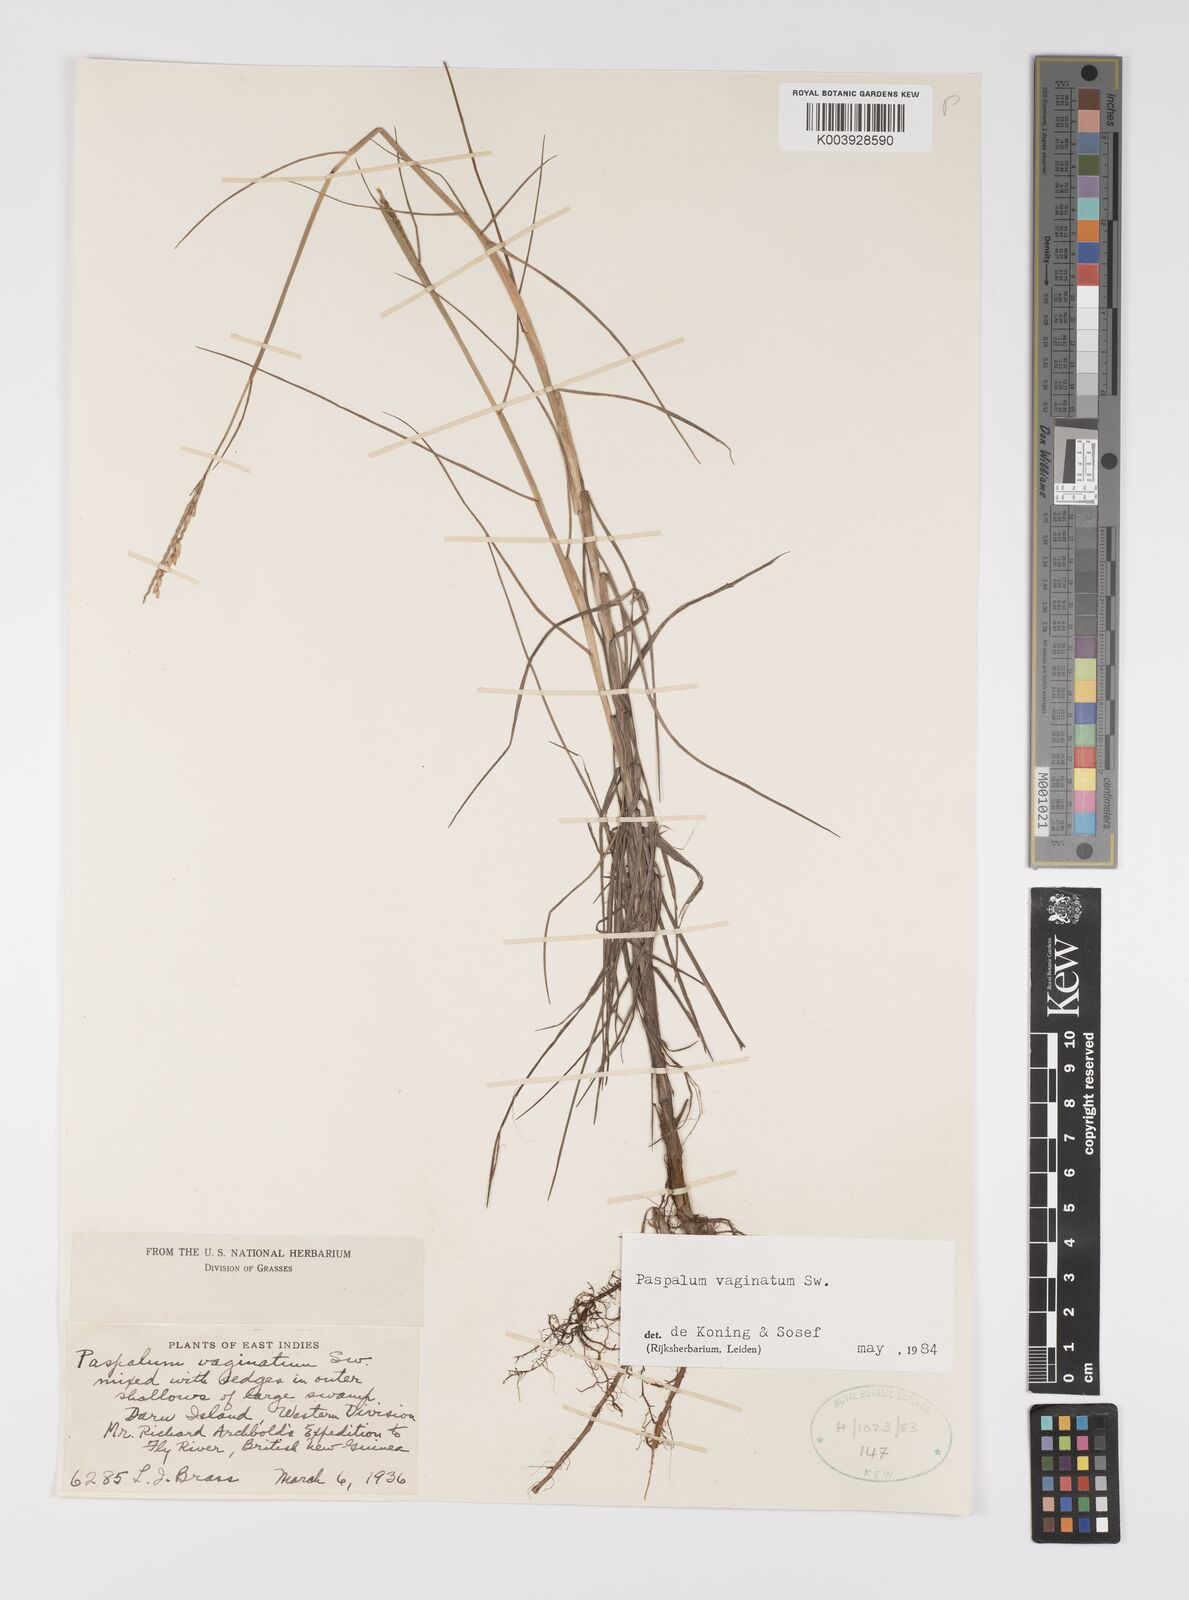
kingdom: Plantae
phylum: Tracheophyta
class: Liliopsida
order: Poales
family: Poaceae
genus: Paspalum
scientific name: Paspalum vaginatum
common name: Seashore paspalum
